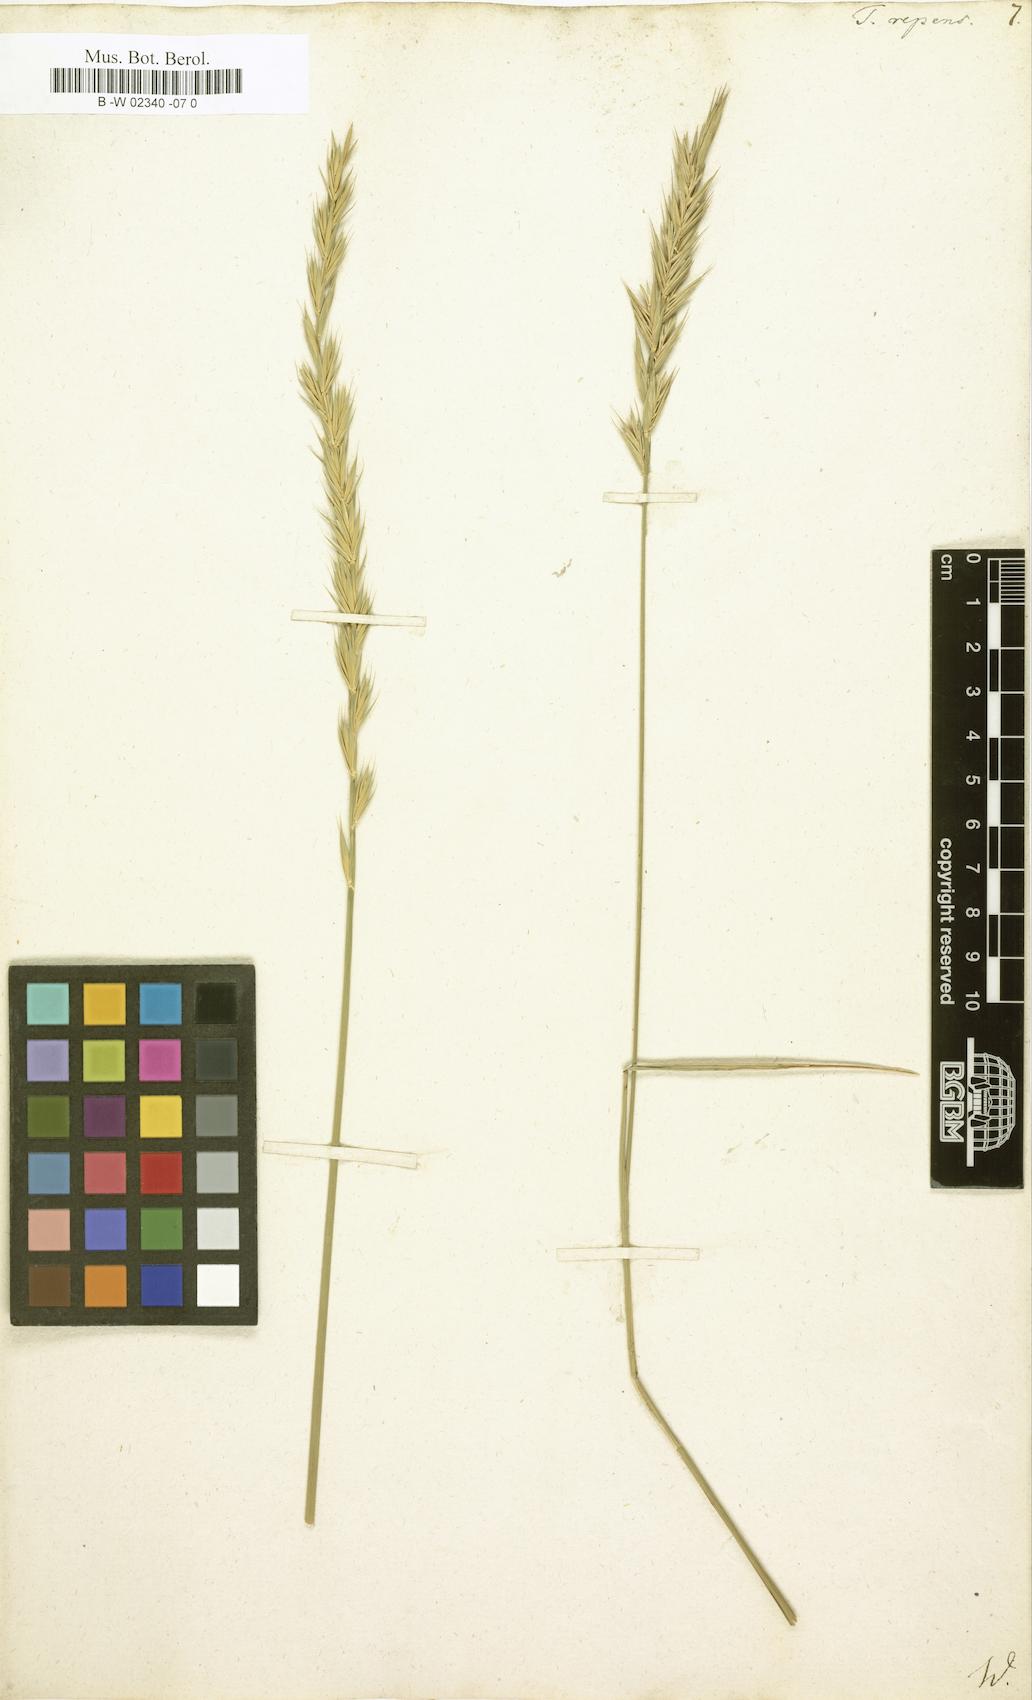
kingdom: Plantae
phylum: Tracheophyta
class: Liliopsida
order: Poales
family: Poaceae
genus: Elymus
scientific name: Elymus repens
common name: Quackgrass
